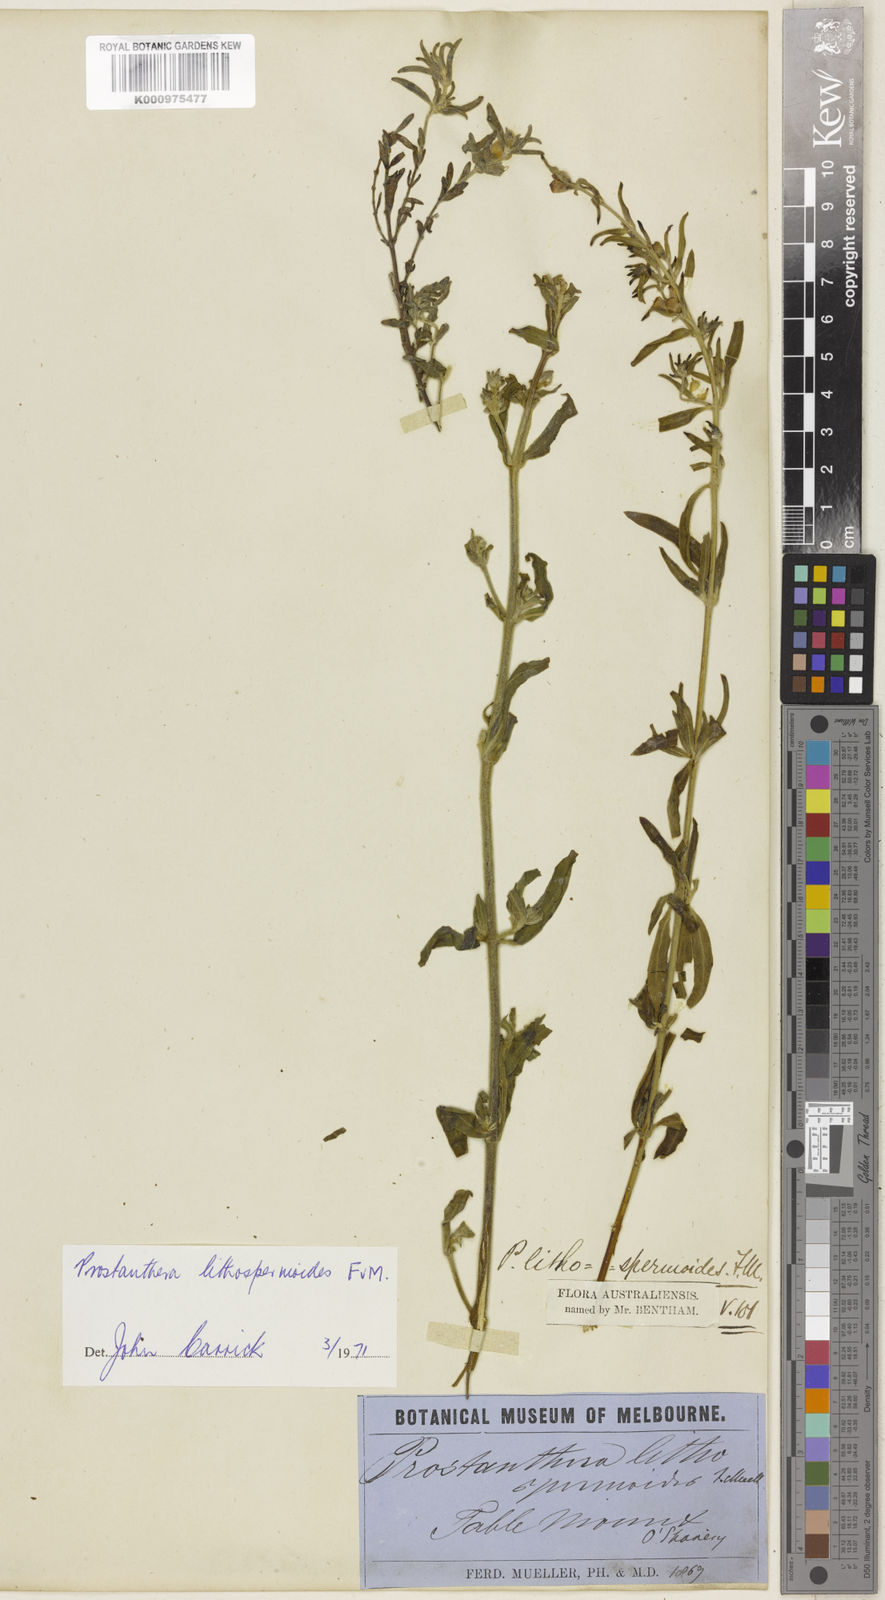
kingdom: Plantae
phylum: Tracheophyta
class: Magnoliopsida
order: Lamiales
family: Lamiaceae
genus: Prostanthera
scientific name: Prostanthera lithospermoides
